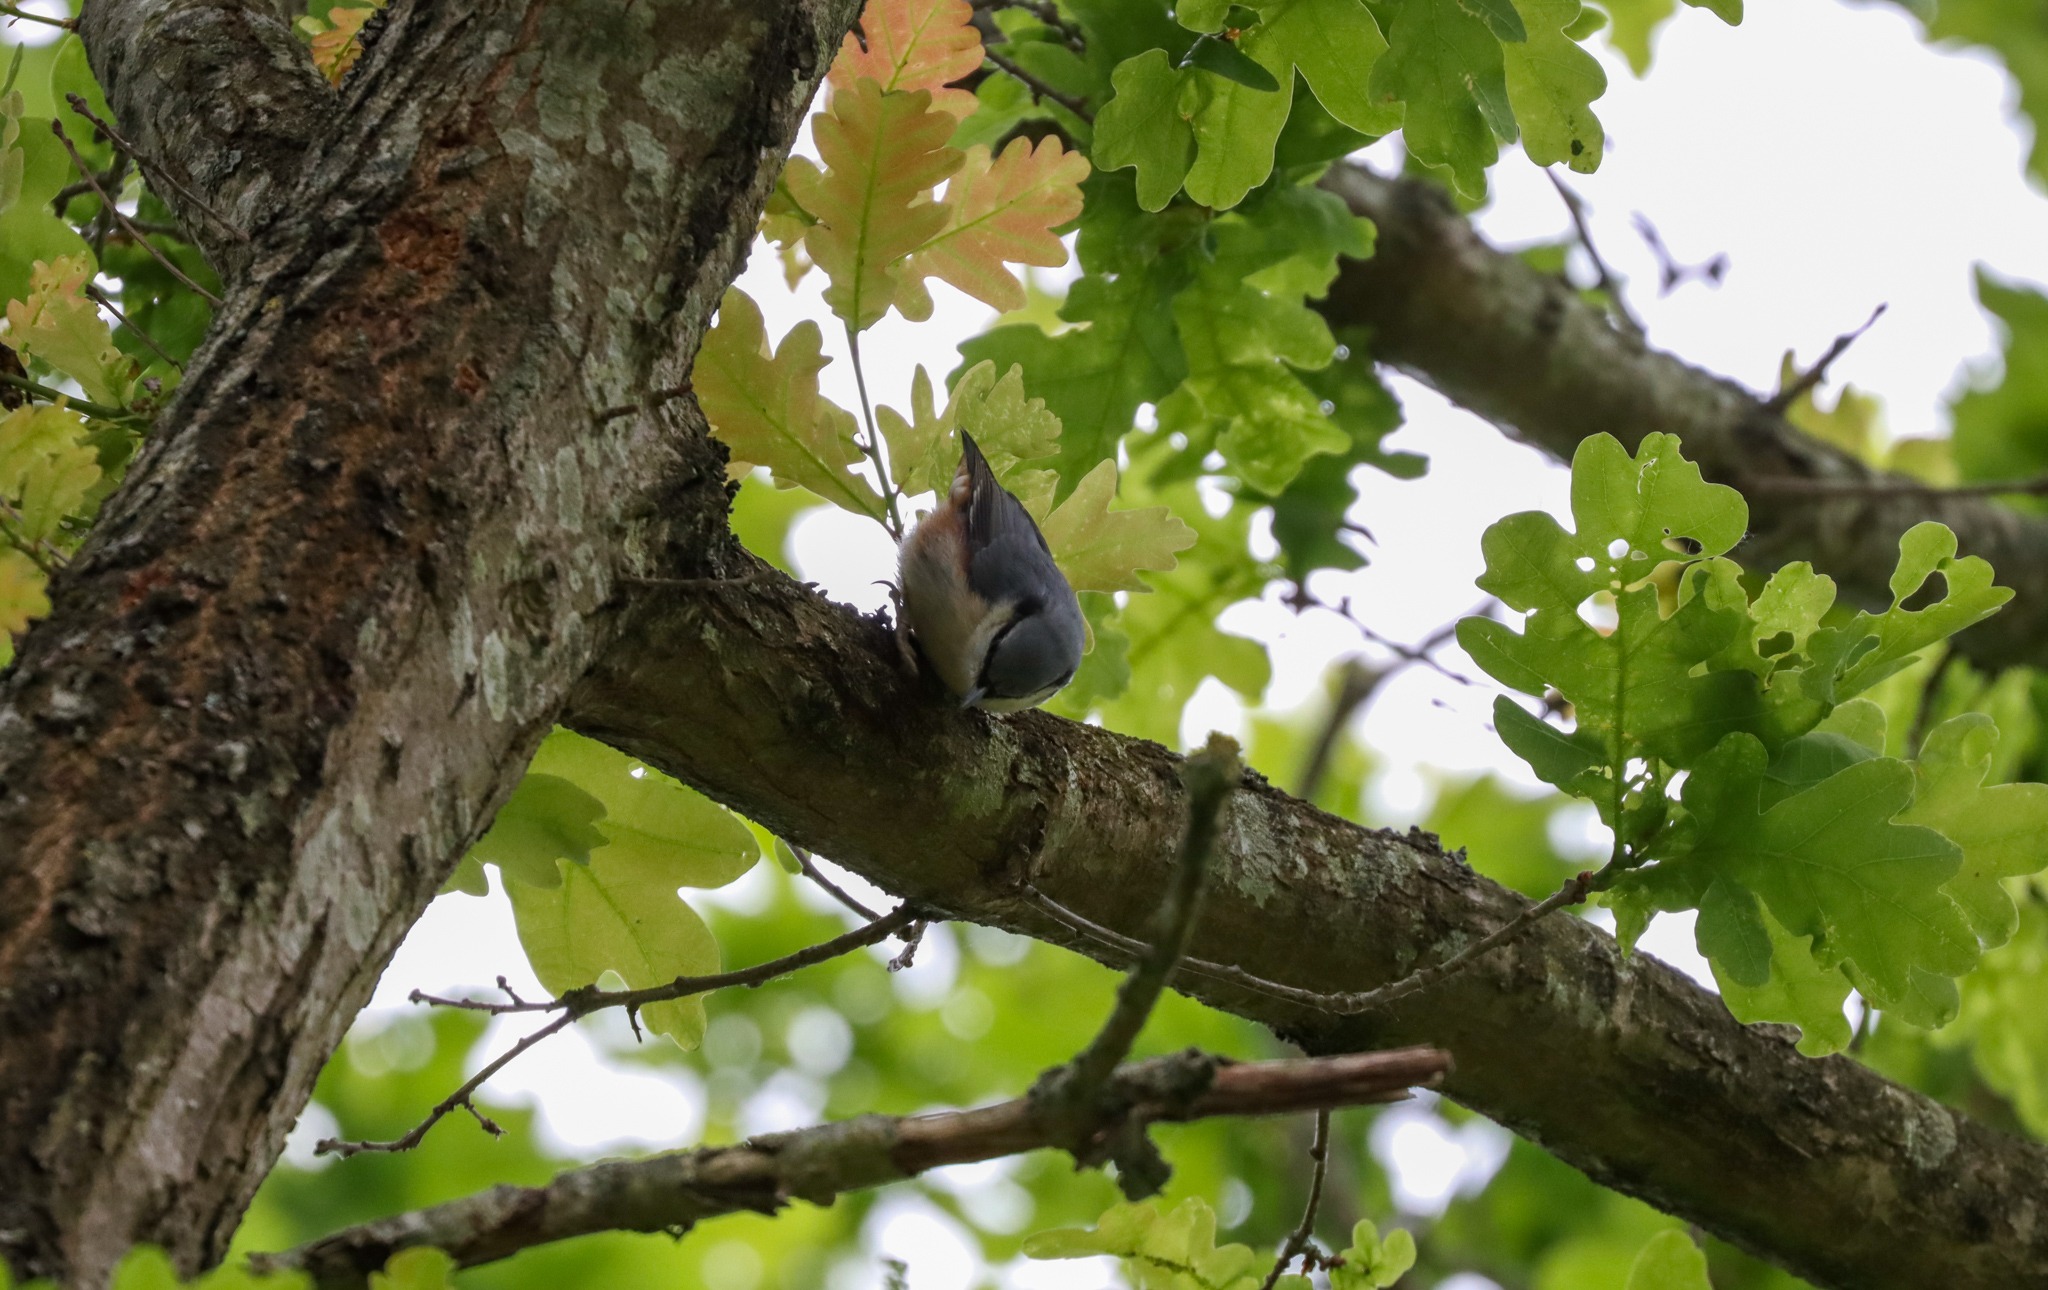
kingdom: Animalia
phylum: Chordata
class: Aves
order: Passeriformes
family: Sittidae
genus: Sitta
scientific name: Sitta europaea
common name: Spætmejse
